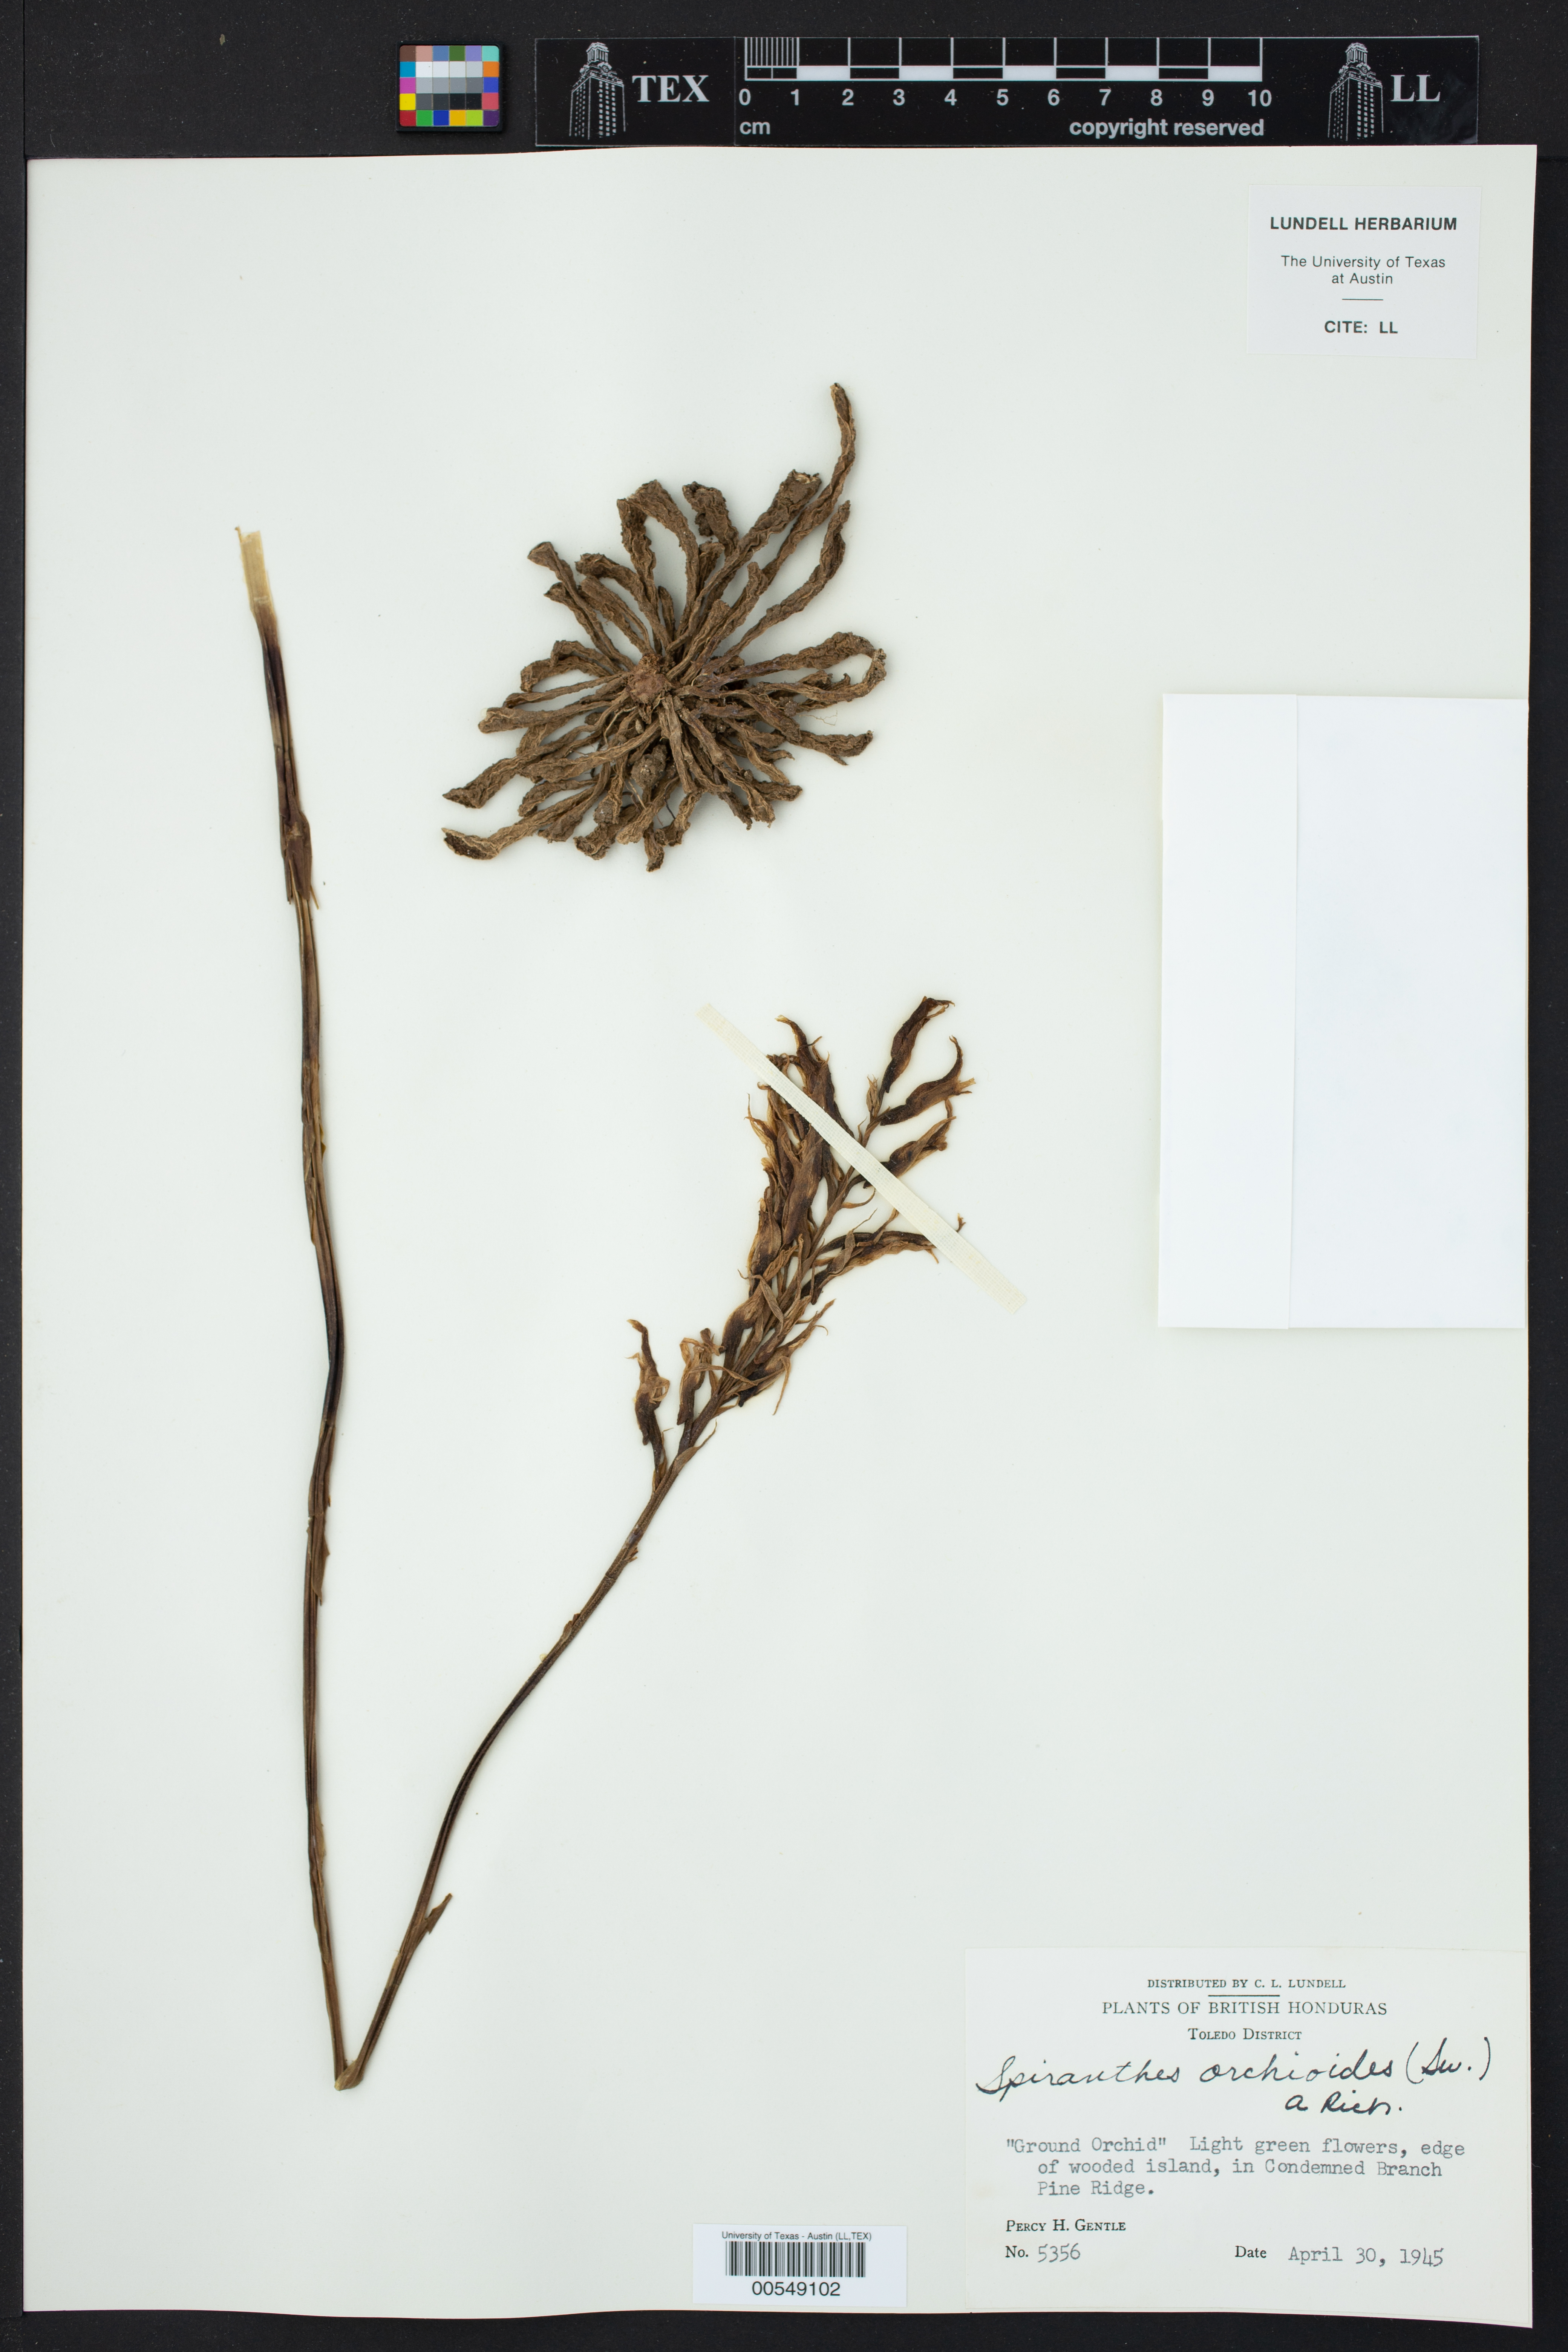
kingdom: Plantae
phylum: Tracheophyta
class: Liliopsida
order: Asparagales
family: Orchidaceae
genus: Spiranthes
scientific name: Spiranthes orchioides
